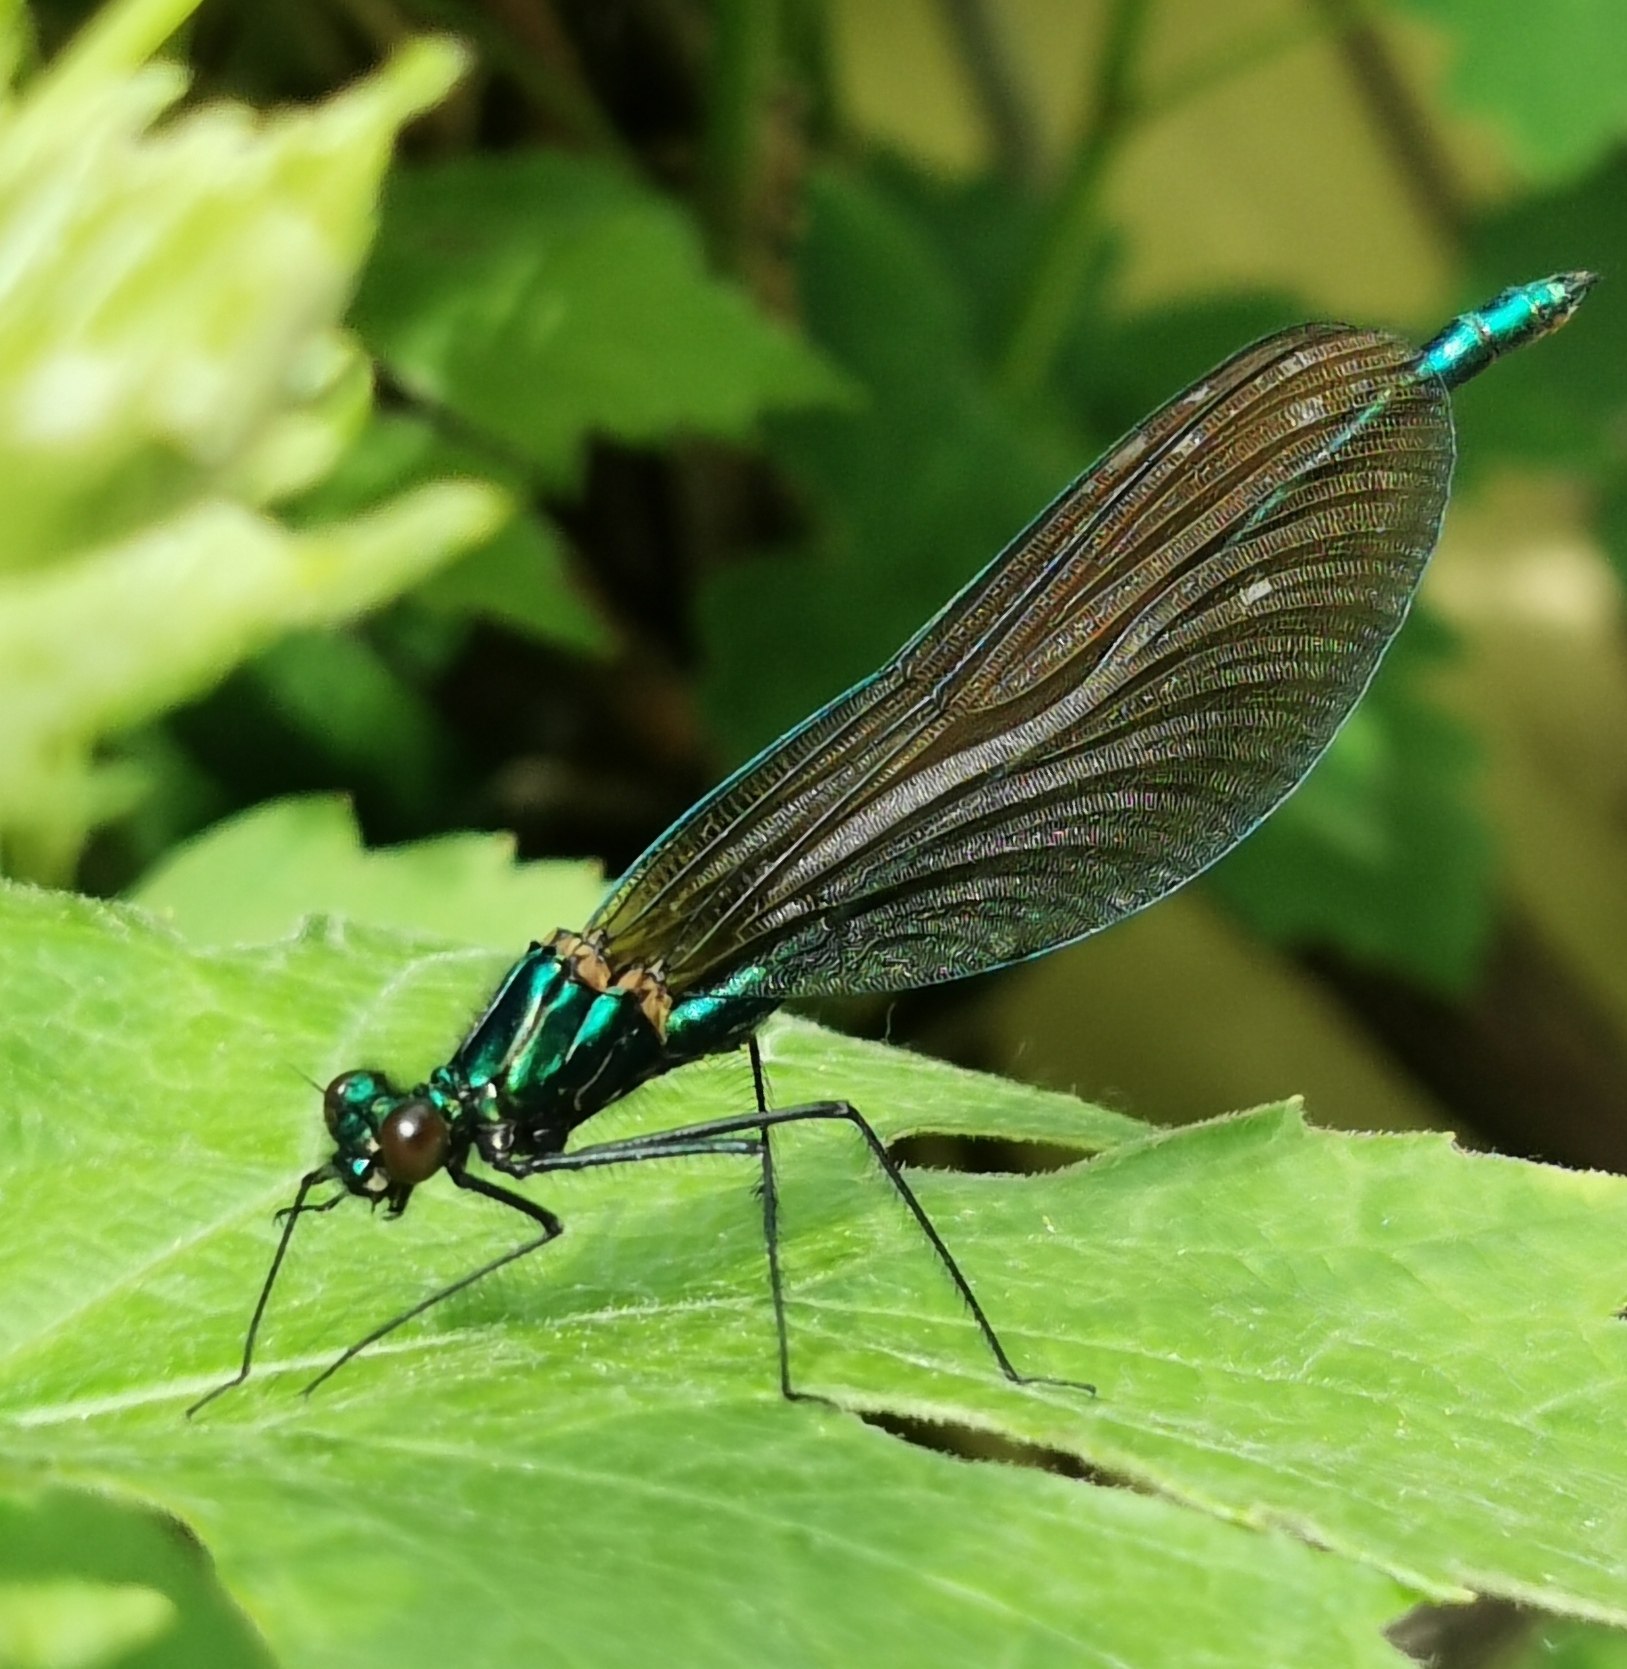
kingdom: Animalia
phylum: Arthropoda
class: Insecta
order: Odonata
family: Calopterygidae
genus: Calopteryx
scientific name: Calopteryx virgo
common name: Blåvinget pragtvandnymfe
